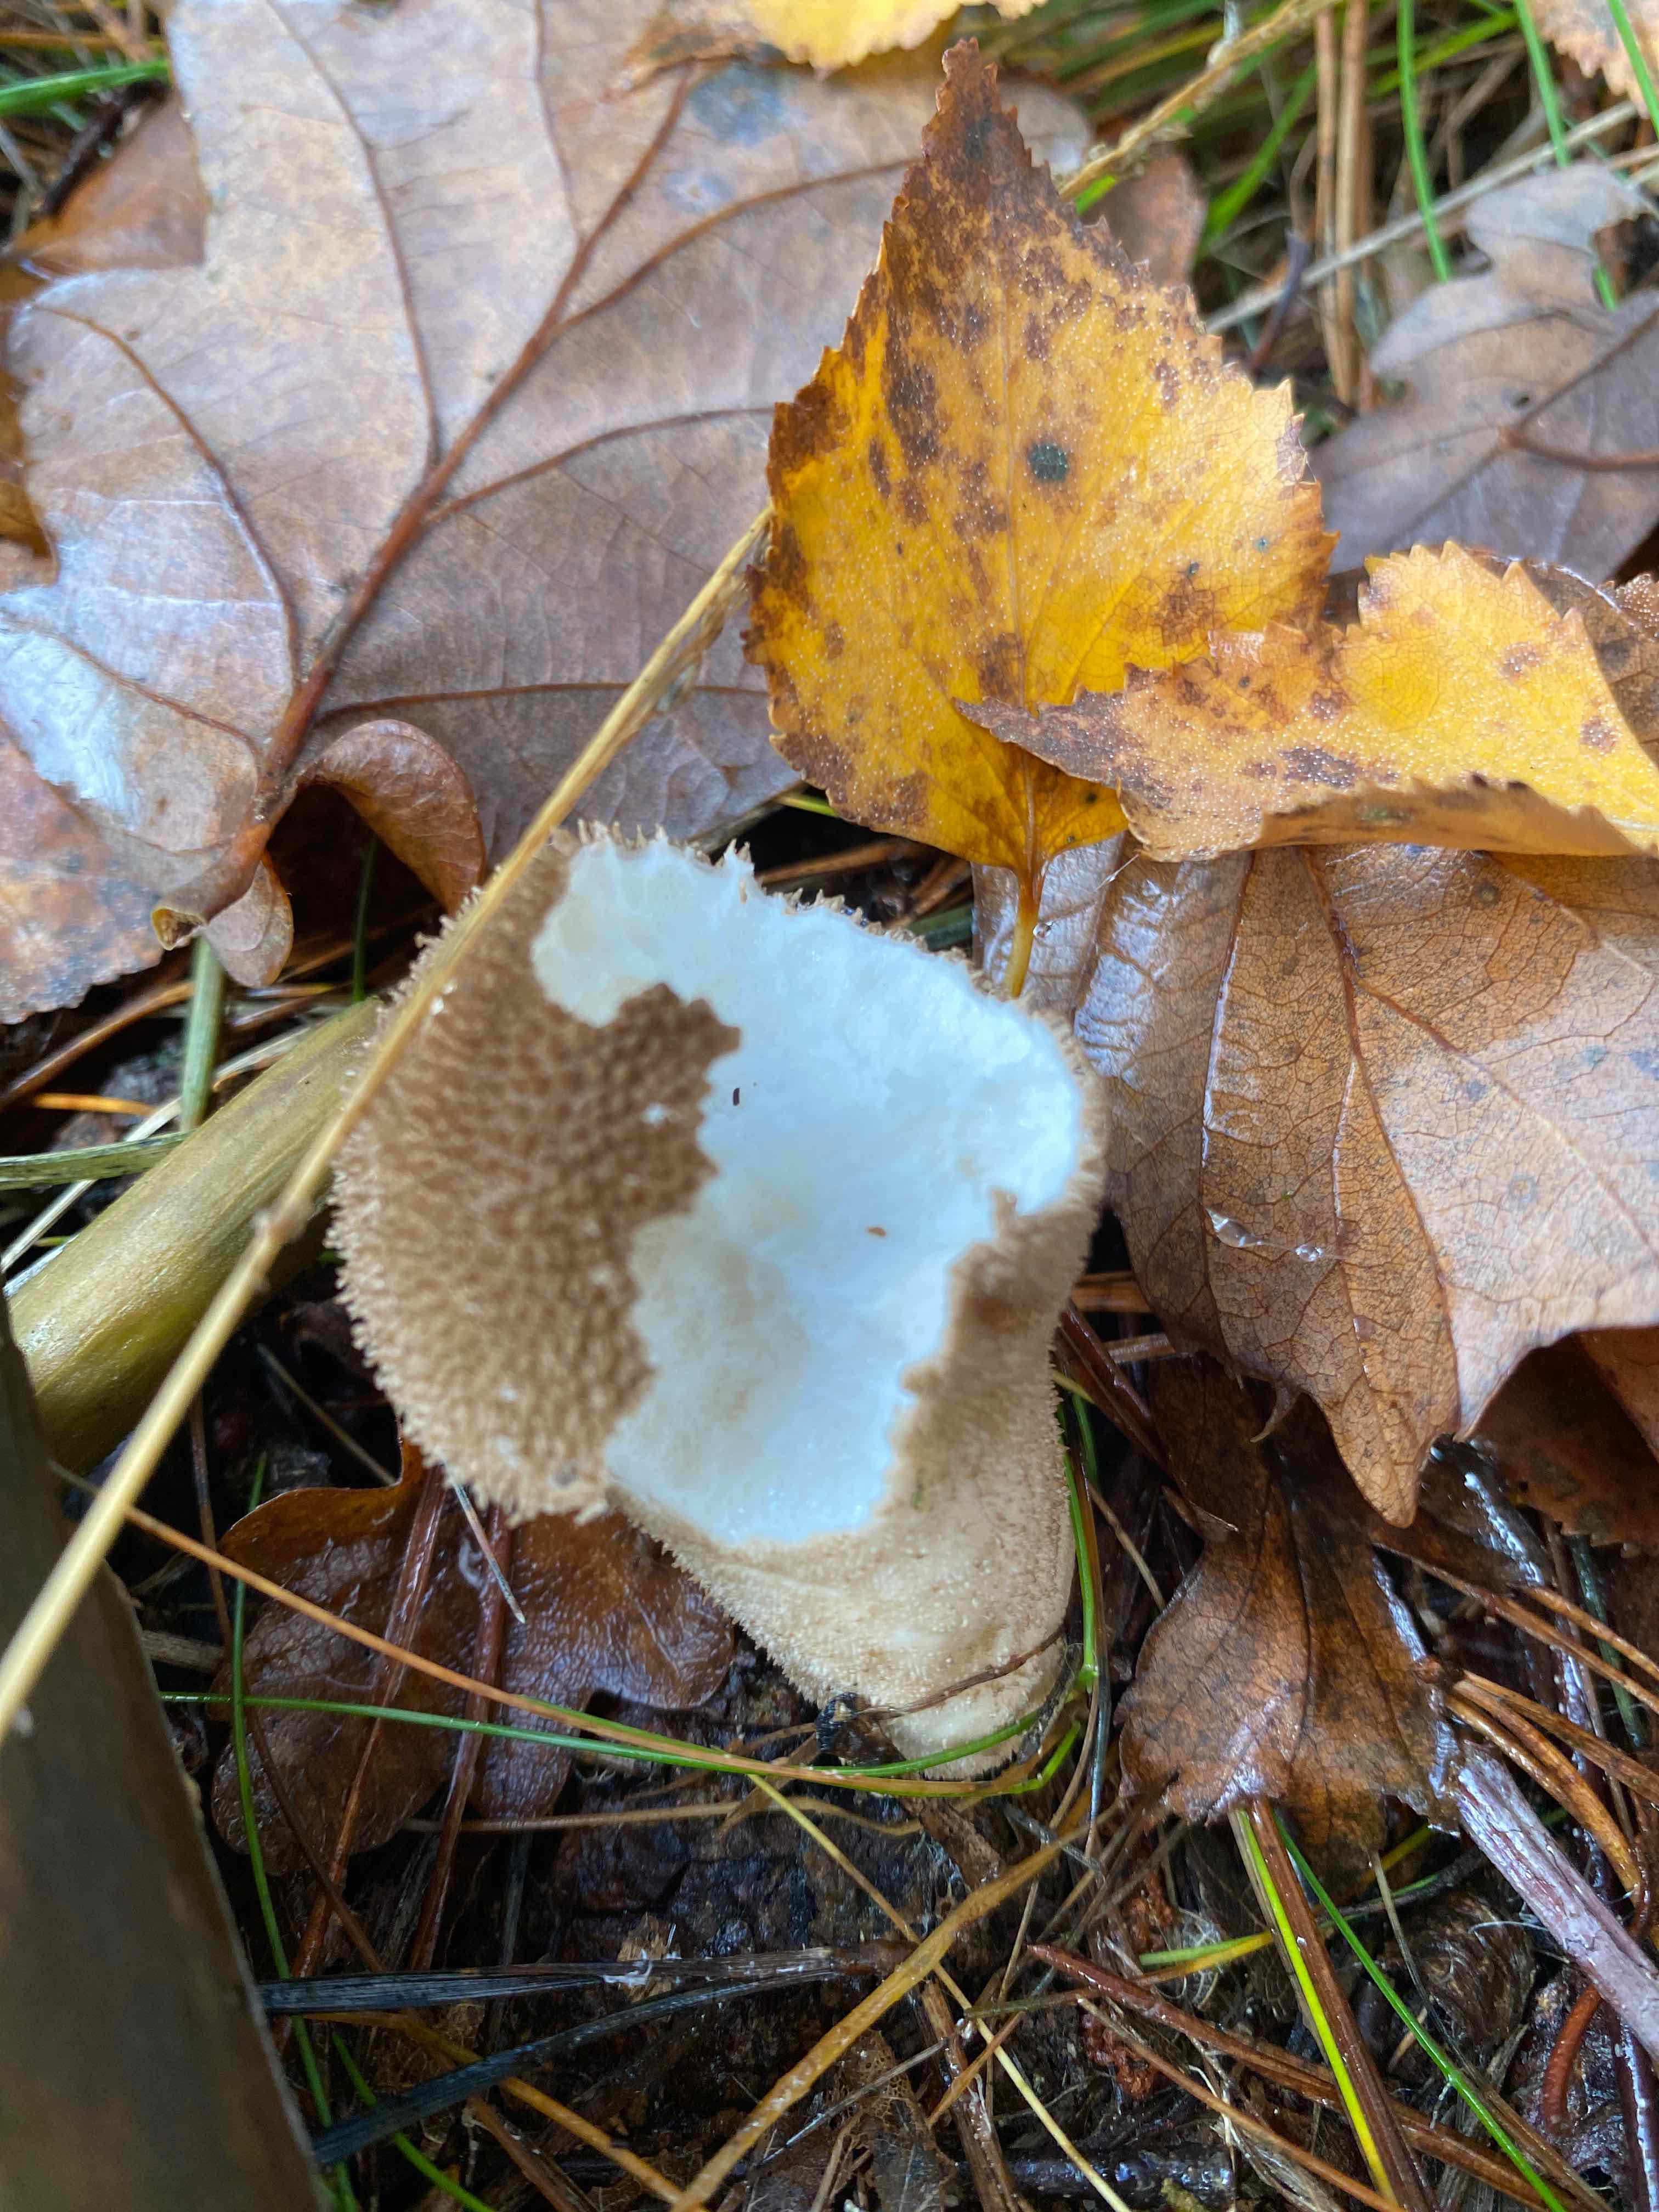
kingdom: Fungi
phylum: Basidiomycota
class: Agaricomycetes
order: Agaricales
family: Lycoperdaceae
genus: Lycoperdon
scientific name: Lycoperdon nigrescens
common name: sortagtig støvbold
